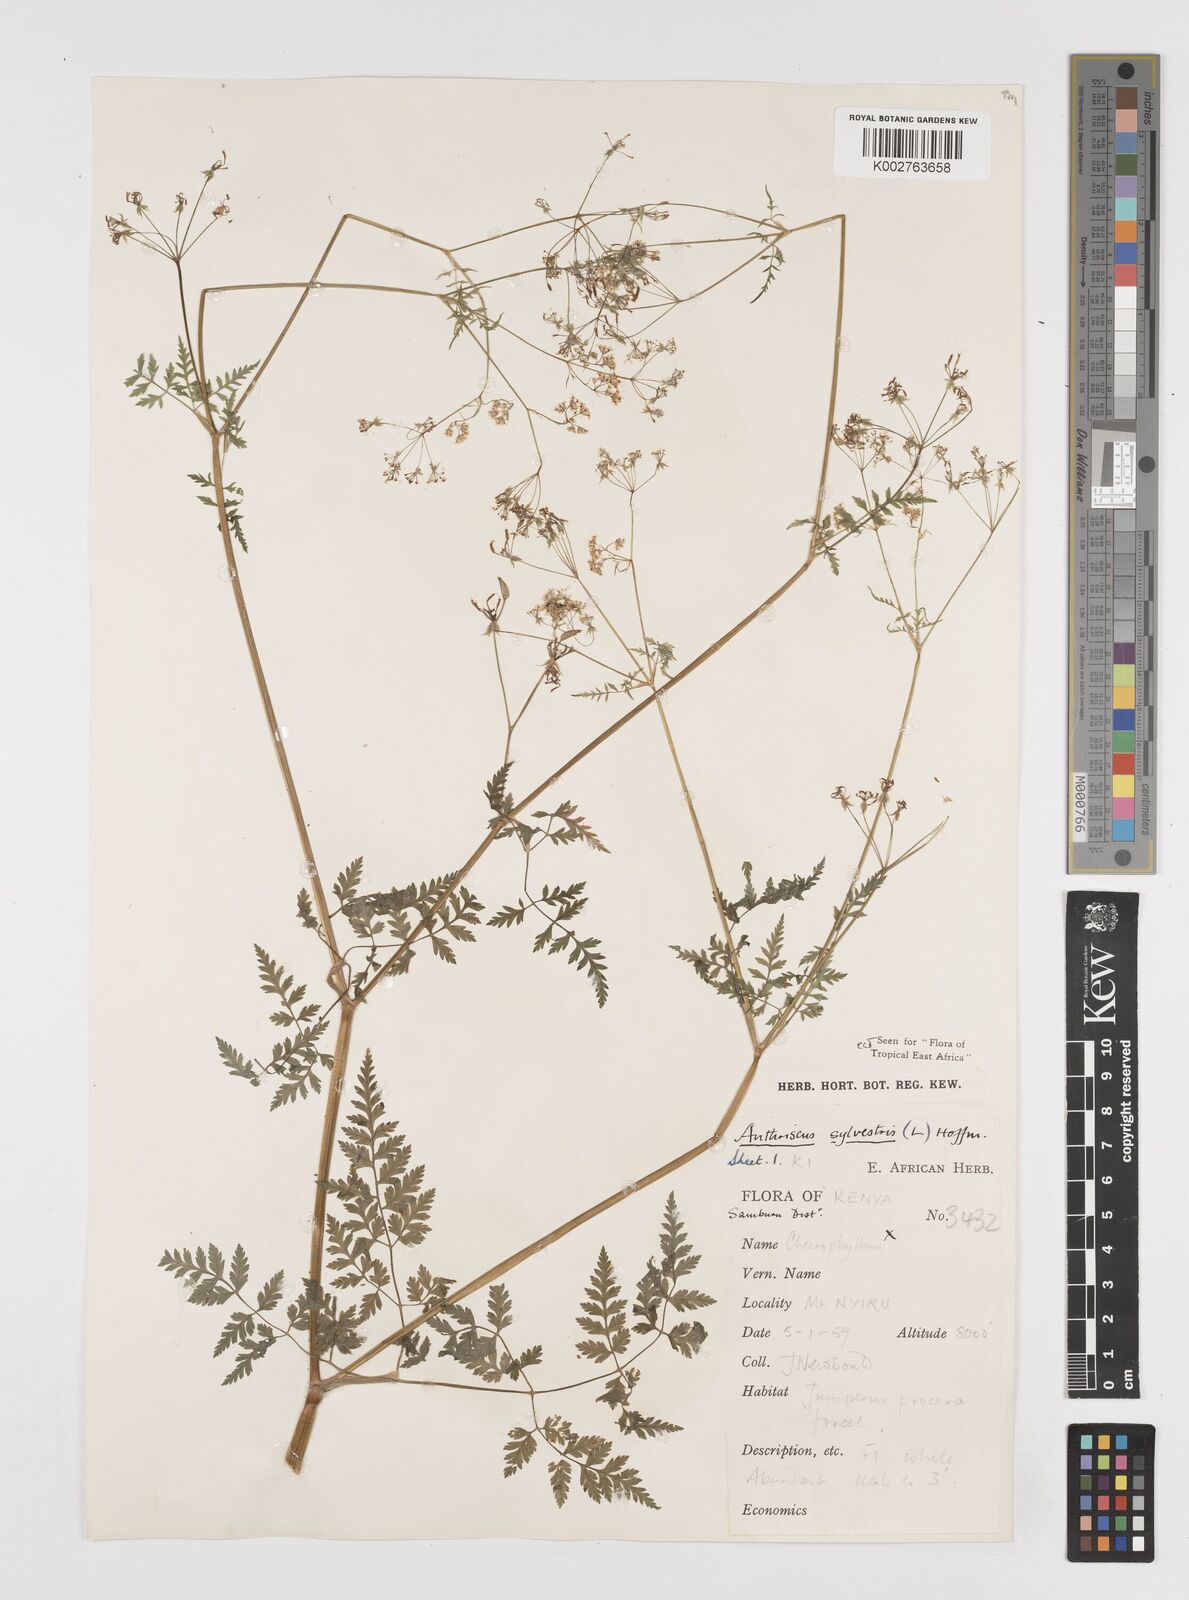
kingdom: Plantae
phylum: Tracheophyta
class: Magnoliopsida
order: Apiales
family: Apiaceae
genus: Anthriscus
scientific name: Anthriscus sylvestris
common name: Cow parsley
